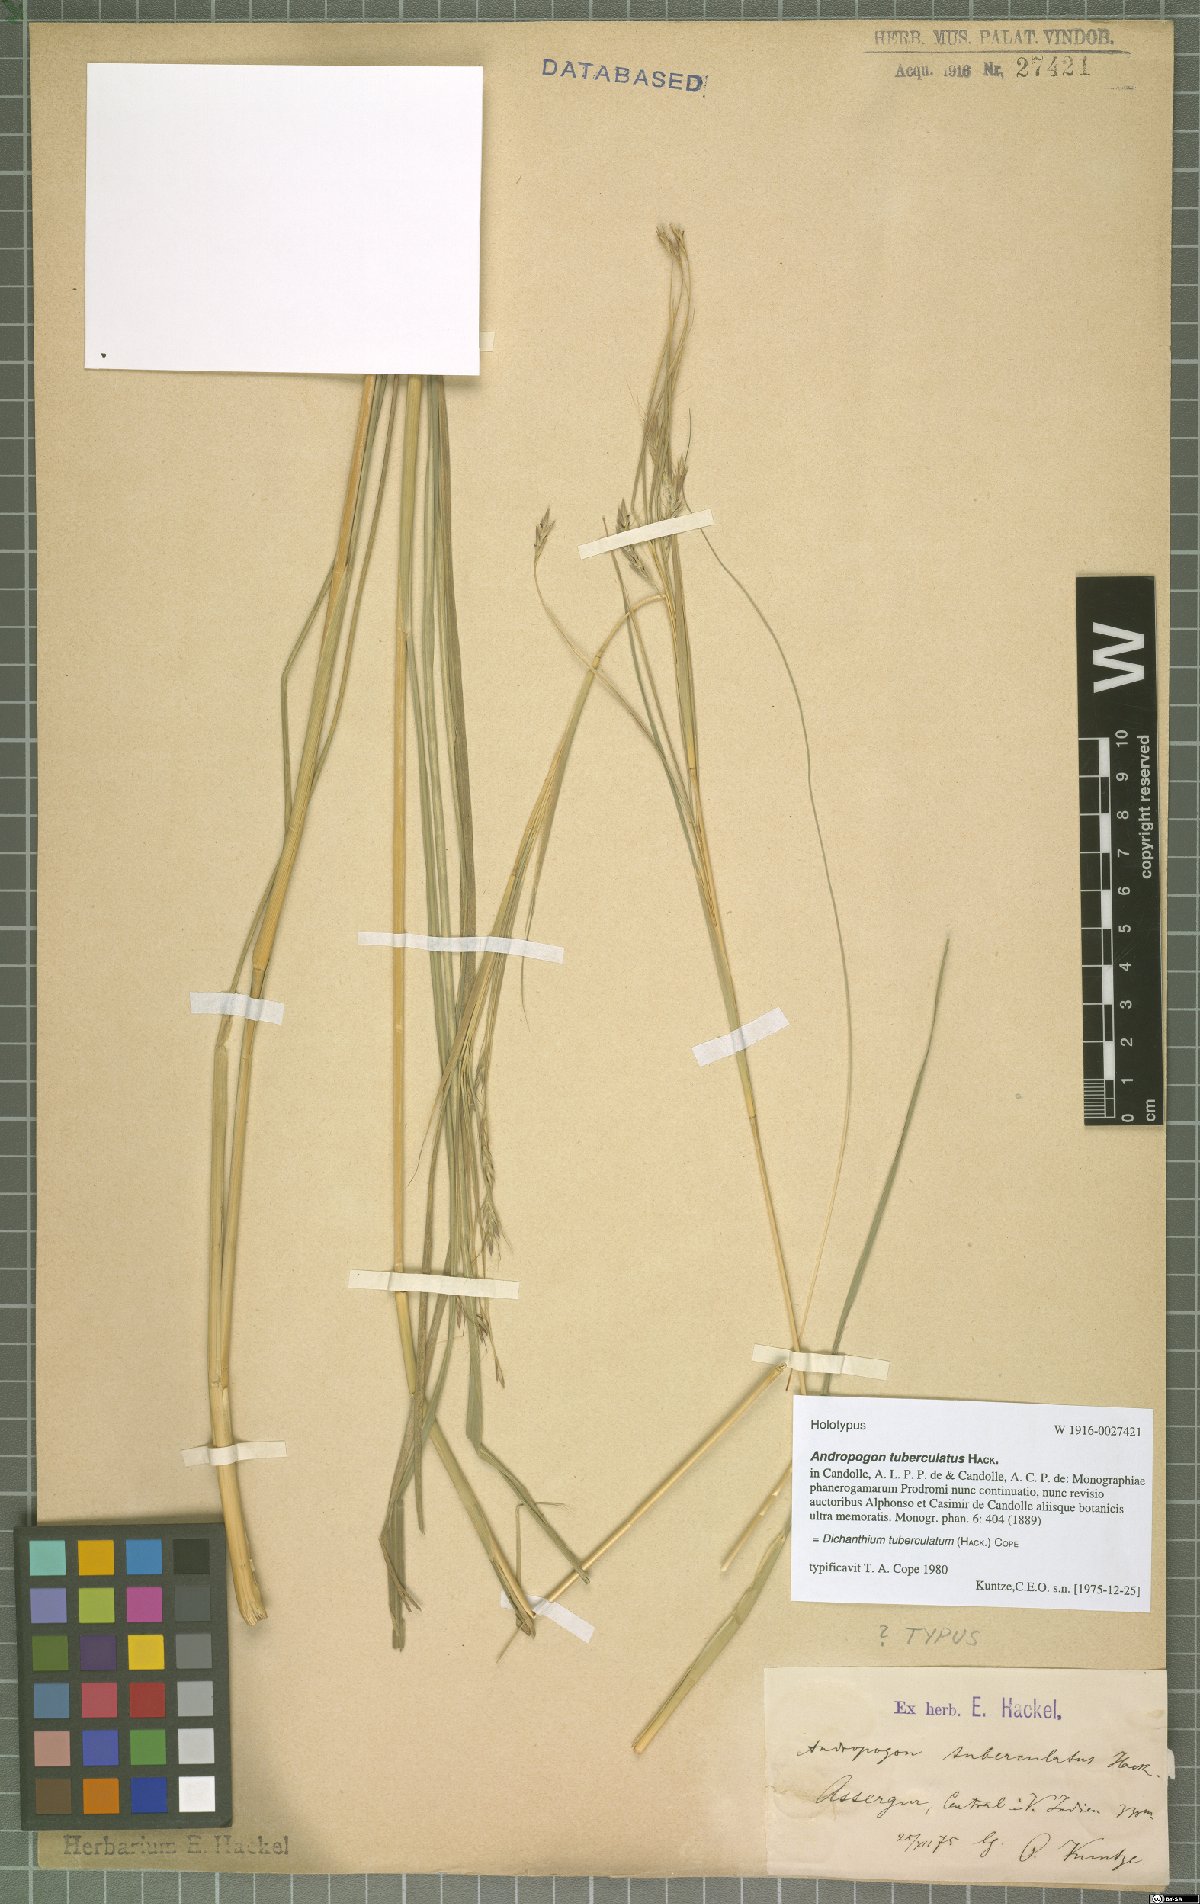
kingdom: Plantae
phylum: Tracheophyta
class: Liliopsida
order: Poales
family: Poaceae
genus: Dichanthium
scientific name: Dichanthium tuberculatum
